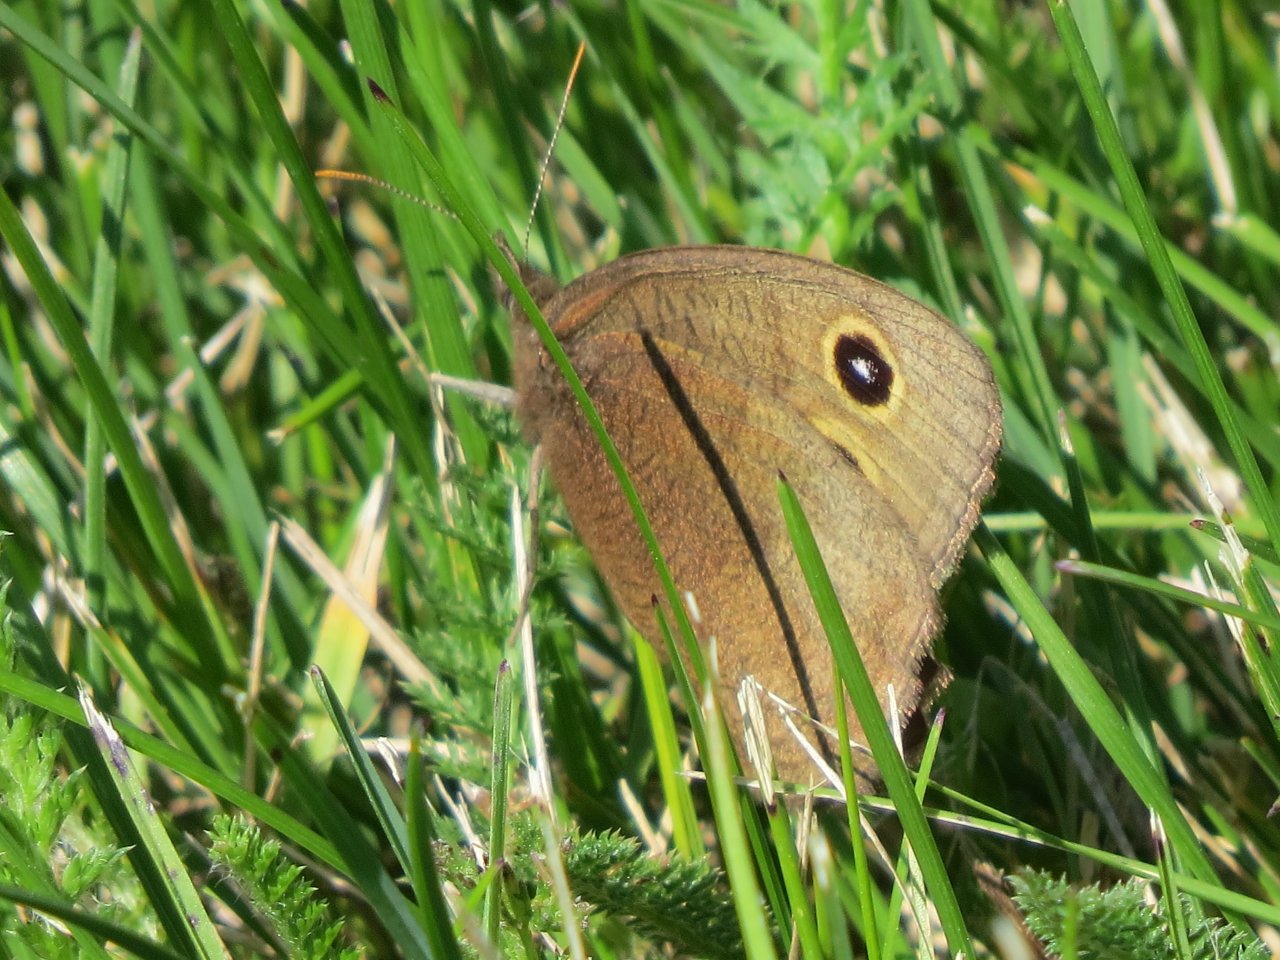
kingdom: Animalia
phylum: Arthropoda
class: Insecta
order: Lepidoptera
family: Nymphalidae
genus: Cercyonis
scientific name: Cercyonis pegala
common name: Common Wood-Nymph
